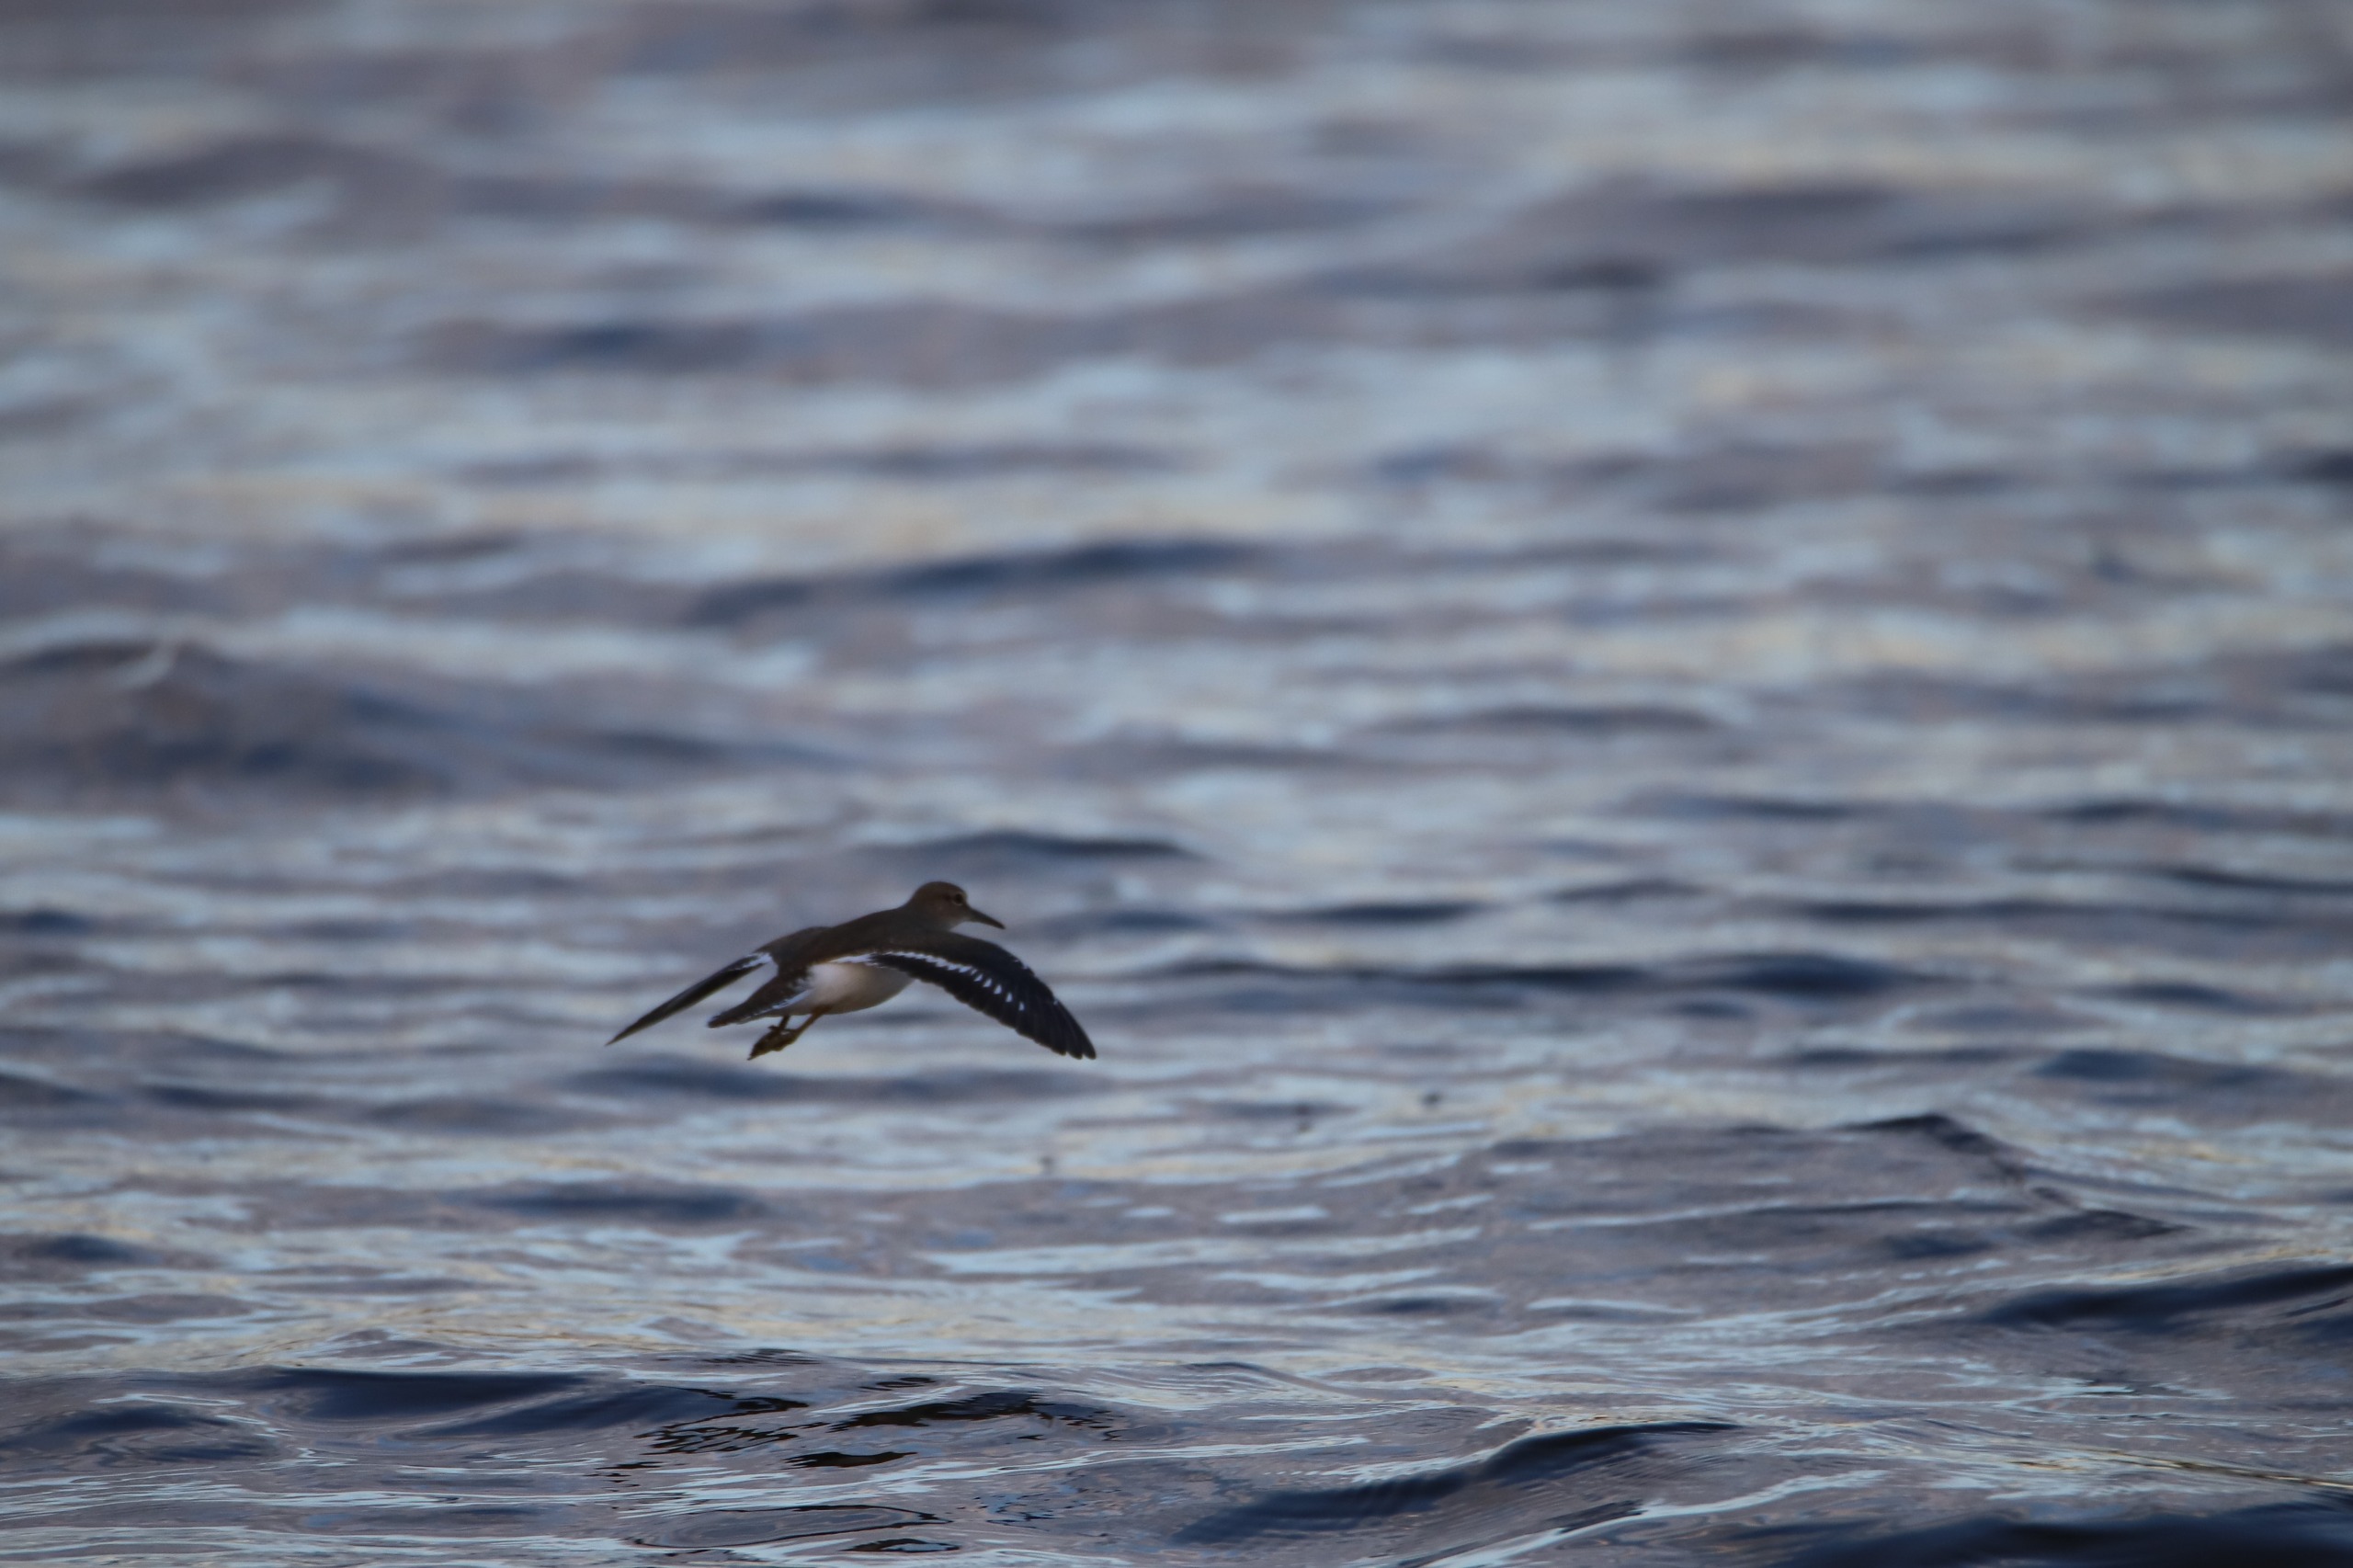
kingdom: Animalia
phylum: Chordata
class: Aves
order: Charadriiformes
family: Scolopacidae
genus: Actitis
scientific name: Actitis hypoleucos
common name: Mudderklire
